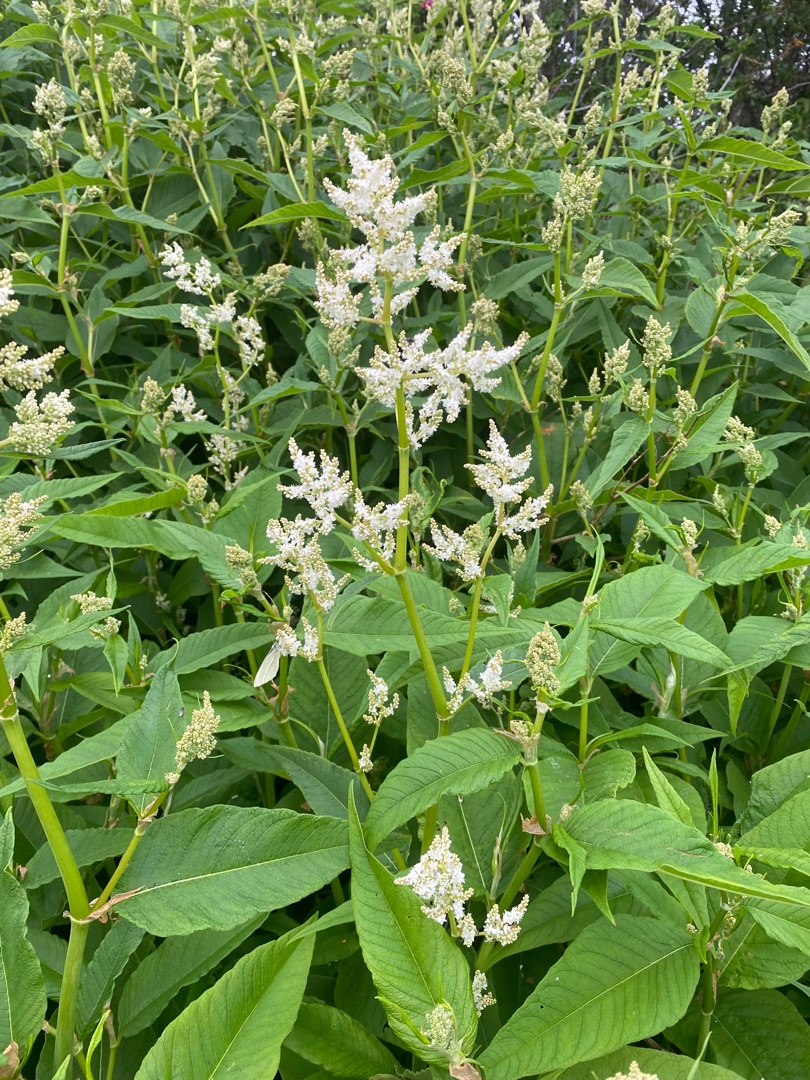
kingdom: Plantae
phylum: Tracheophyta
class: Magnoliopsida
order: Caryophyllales
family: Polygonaceae
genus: Koenigia
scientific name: Koenigia fennica
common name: Finsk pileurt
